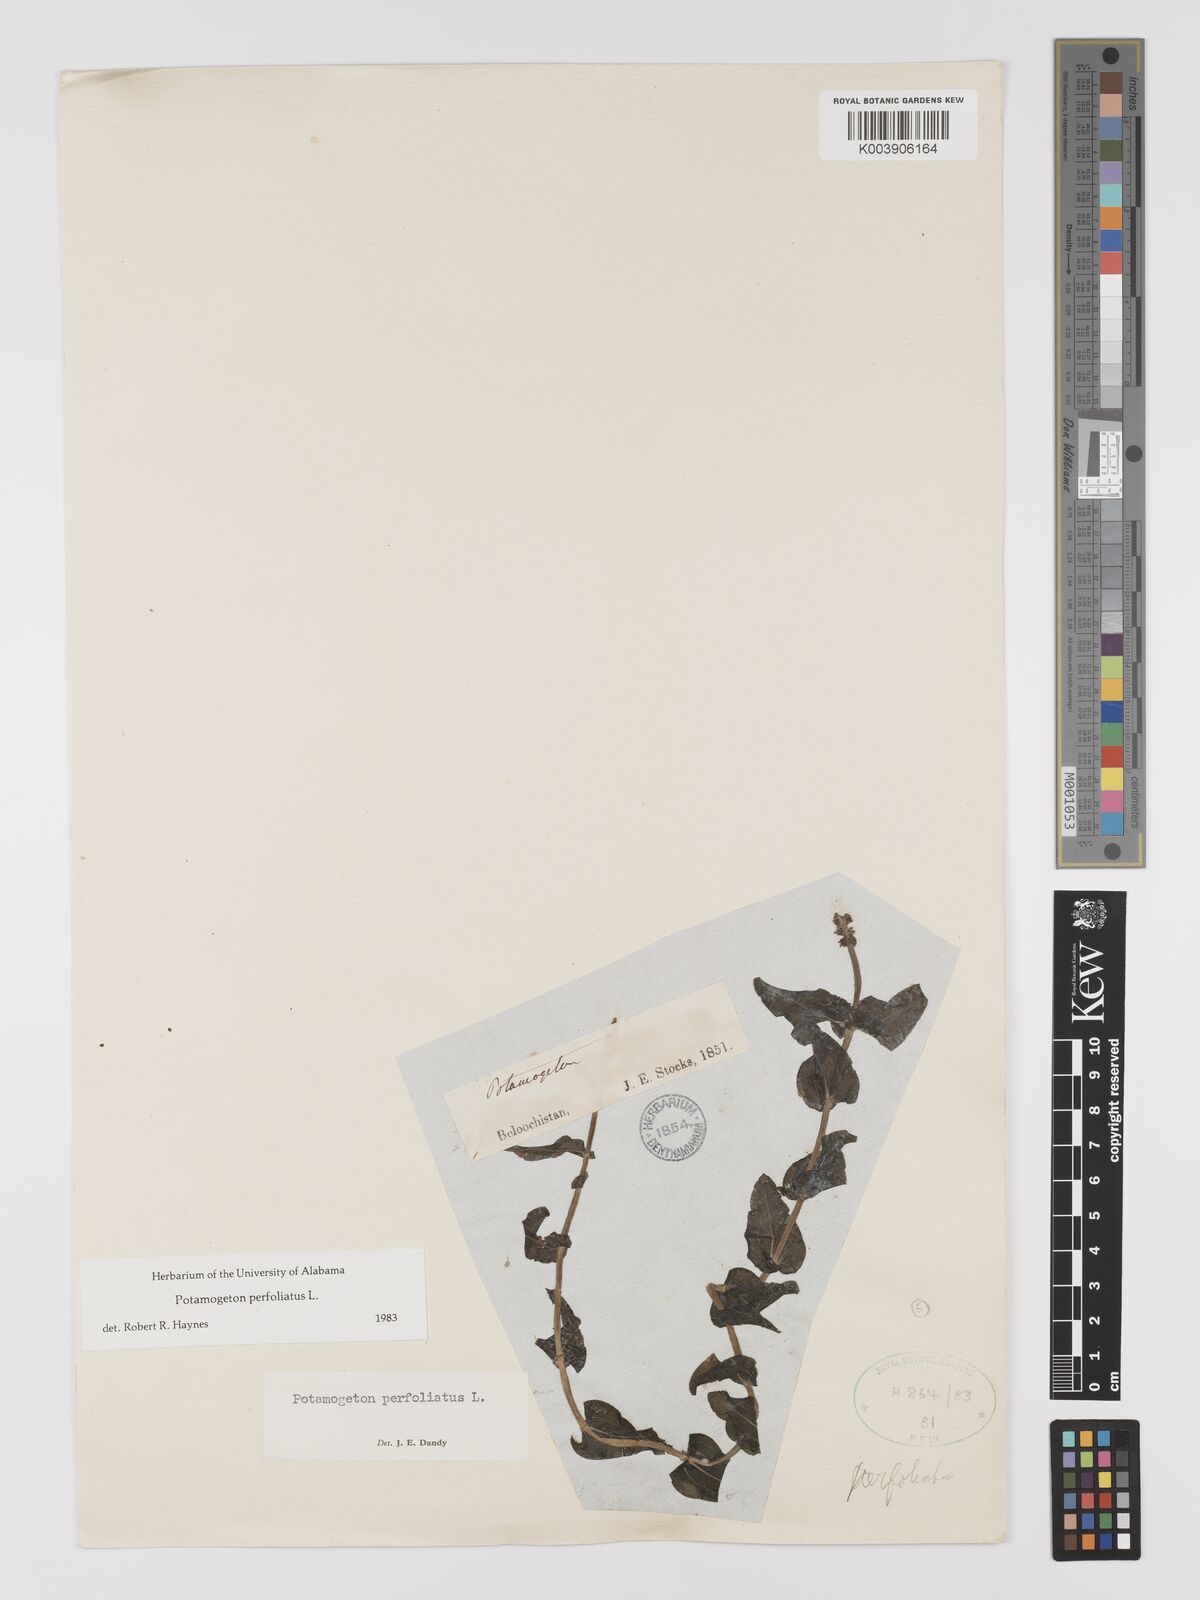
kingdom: Plantae
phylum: Tracheophyta
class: Liliopsida
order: Alismatales
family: Potamogetonaceae
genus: Potamogeton
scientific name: Potamogeton perfoliatus
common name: Perfoliate pondweed
